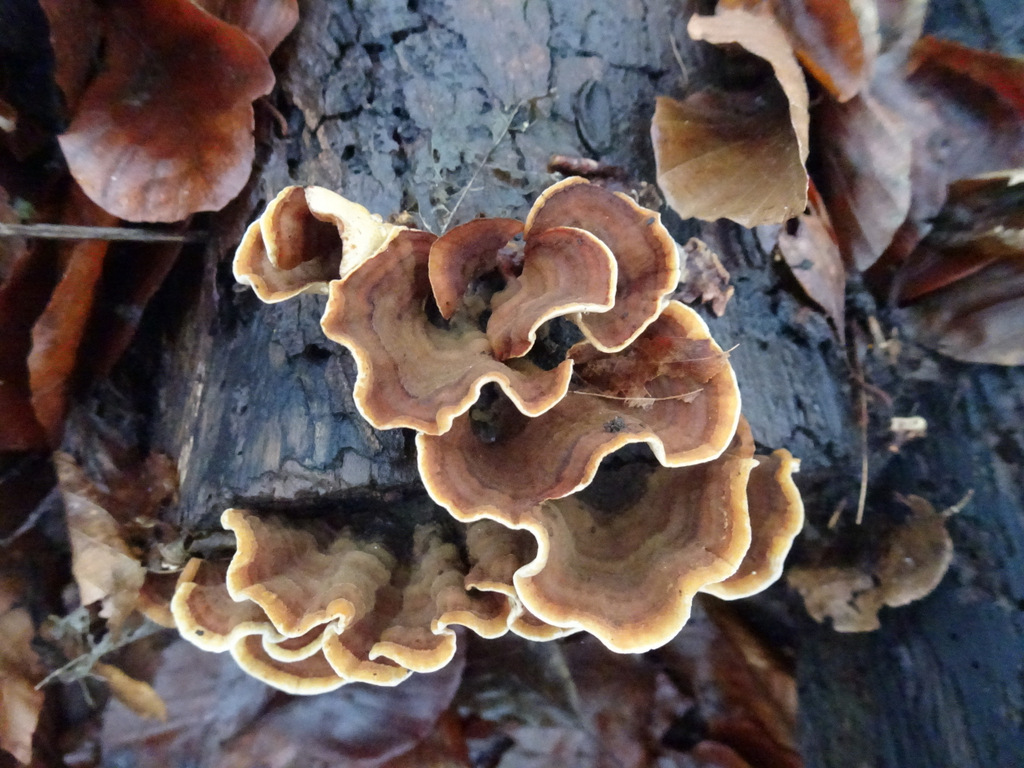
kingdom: Fungi
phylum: Basidiomycota
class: Agaricomycetes
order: Russulales
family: Stereaceae
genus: Stereum
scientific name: Stereum subtomentosum
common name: smuk lædersvamp
